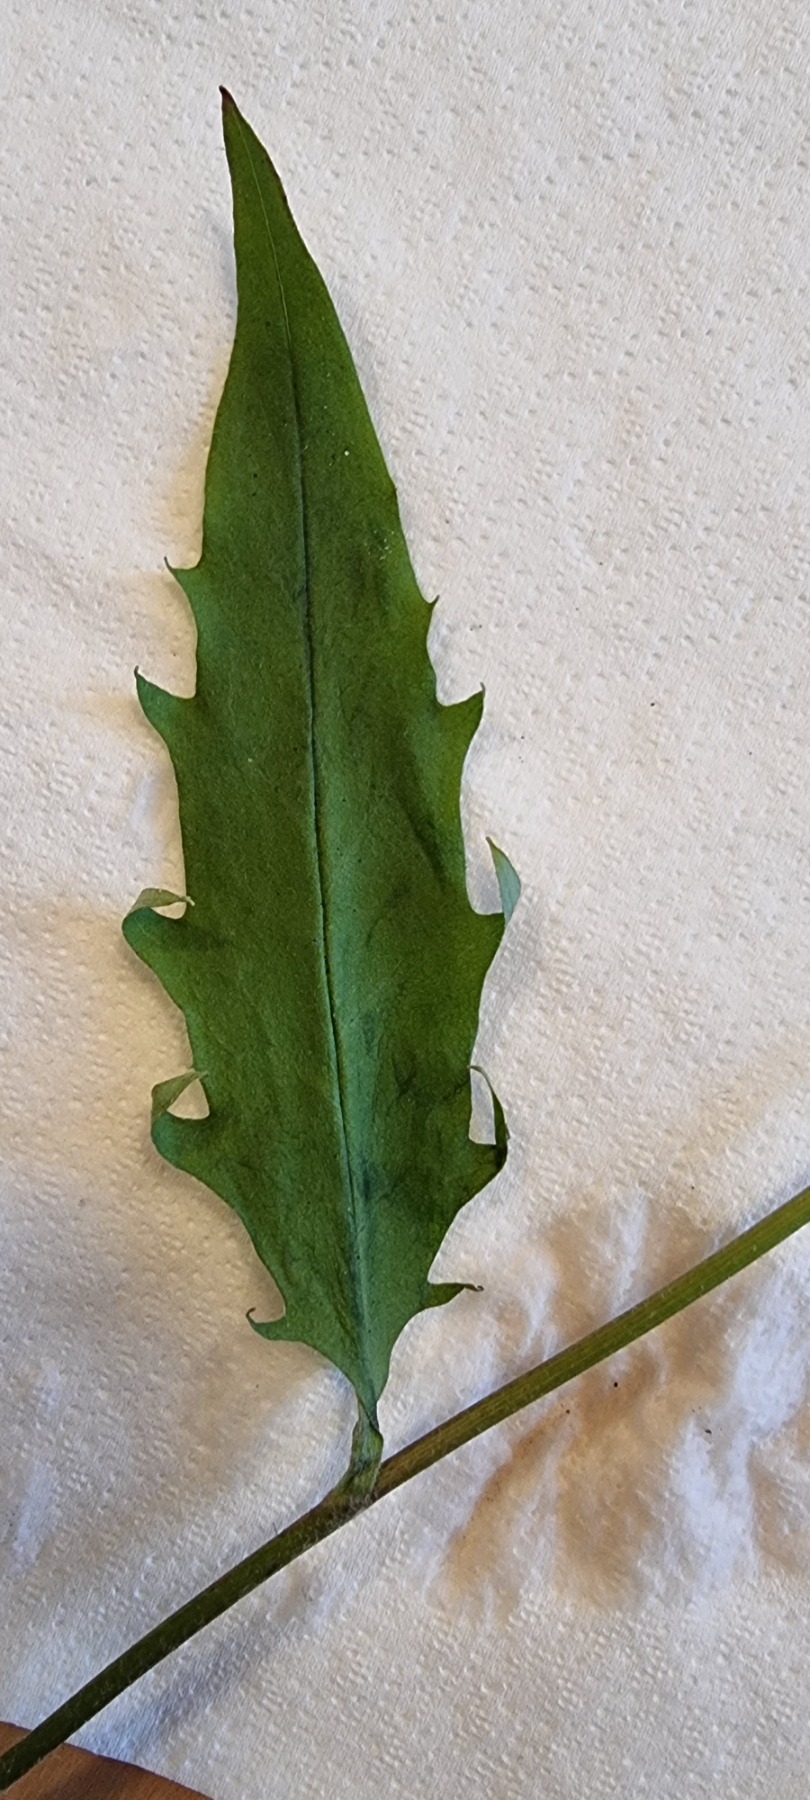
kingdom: Plantae
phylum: Tracheophyta
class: Magnoliopsida
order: Asterales
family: Asteraceae
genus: Hieracium
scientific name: Hieracium lachenalii
